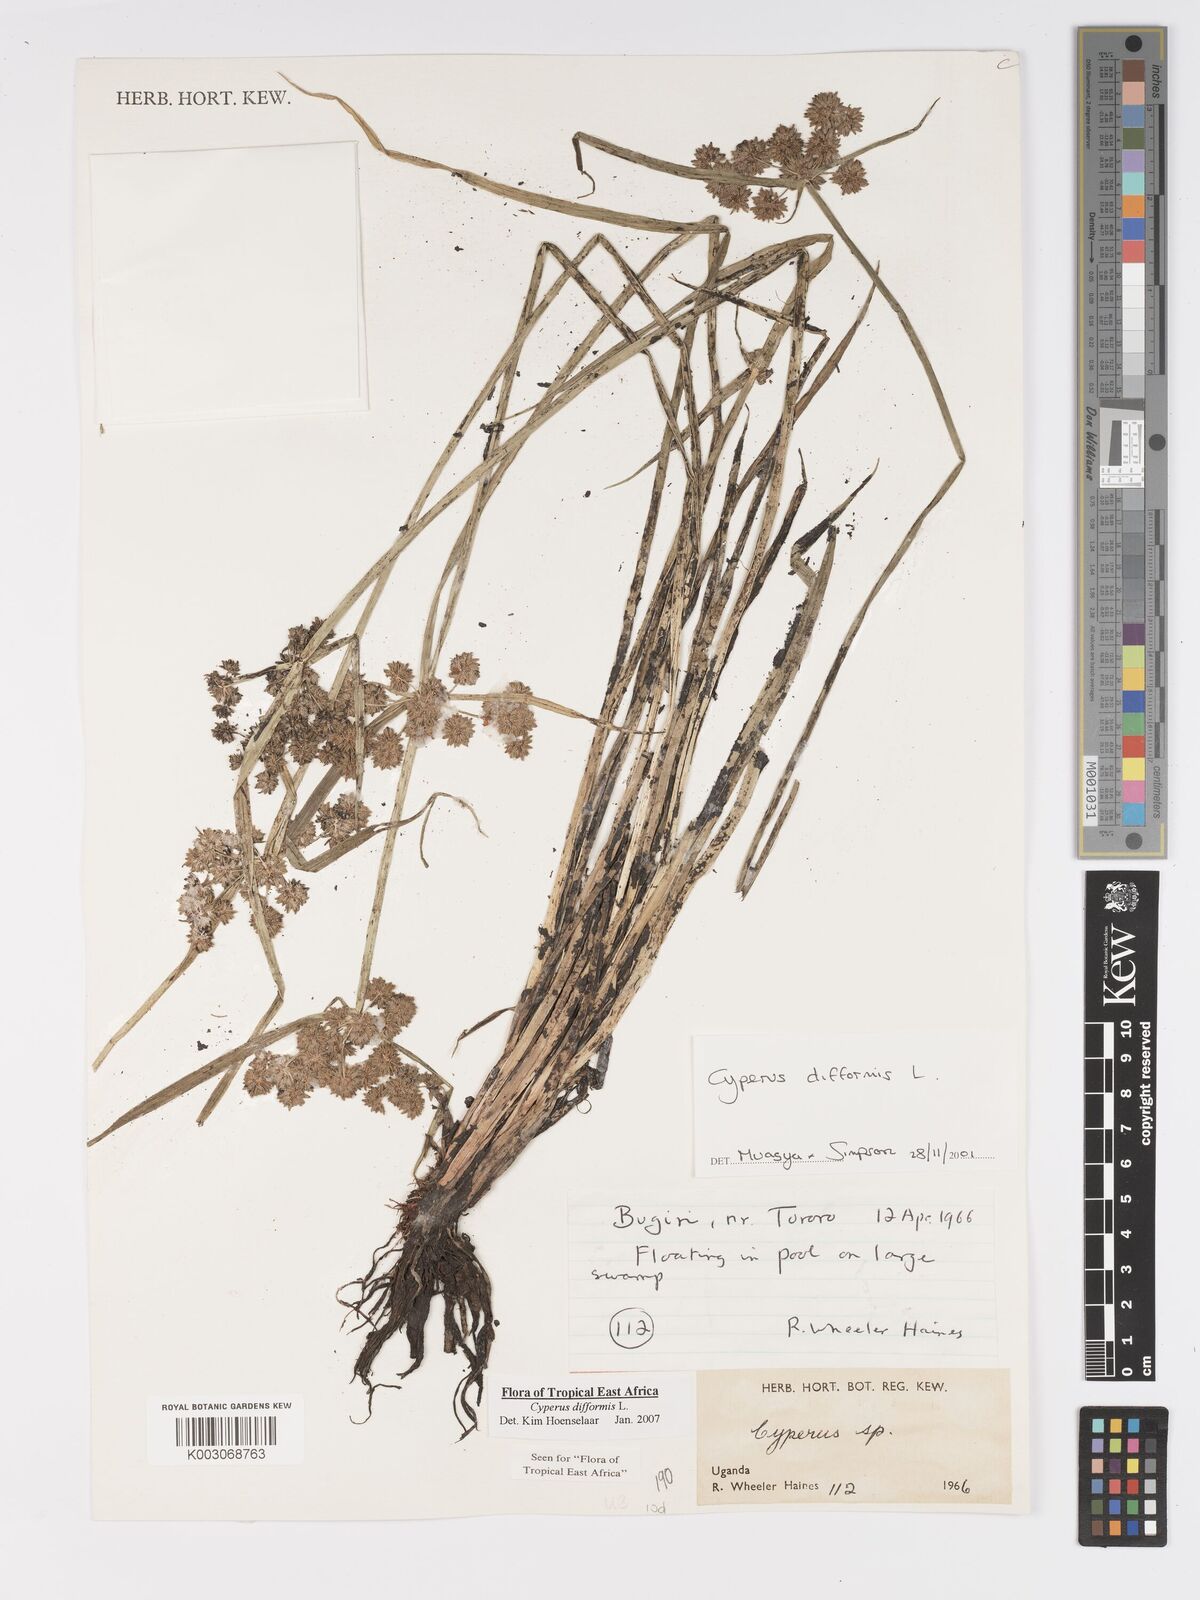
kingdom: Plantae
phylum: Tracheophyta
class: Liliopsida
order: Poales
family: Cyperaceae
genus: Cyperus
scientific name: Cyperus difformis
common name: Variable flatsedge
